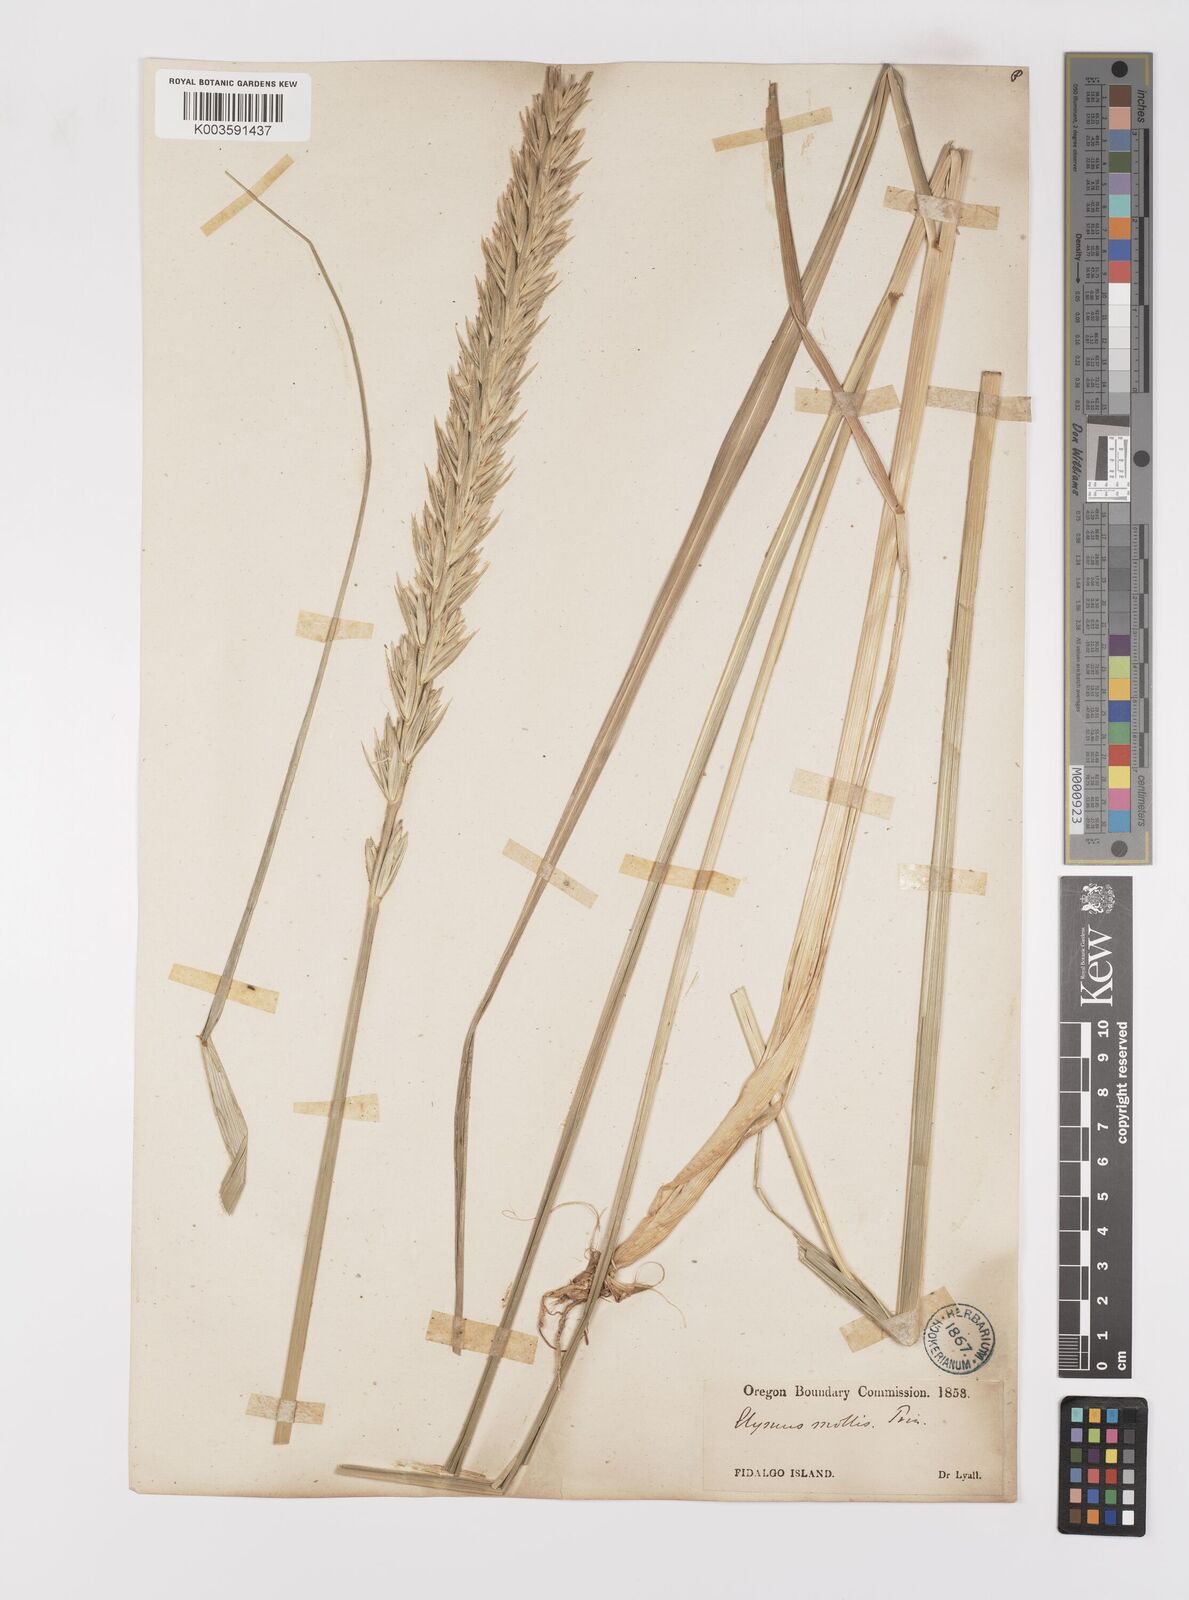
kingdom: Plantae
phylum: Tracheophyta
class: Liliopsida
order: Poales
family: Poaceae
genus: Leymus
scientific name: Leymus mollis
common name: American dune grass
